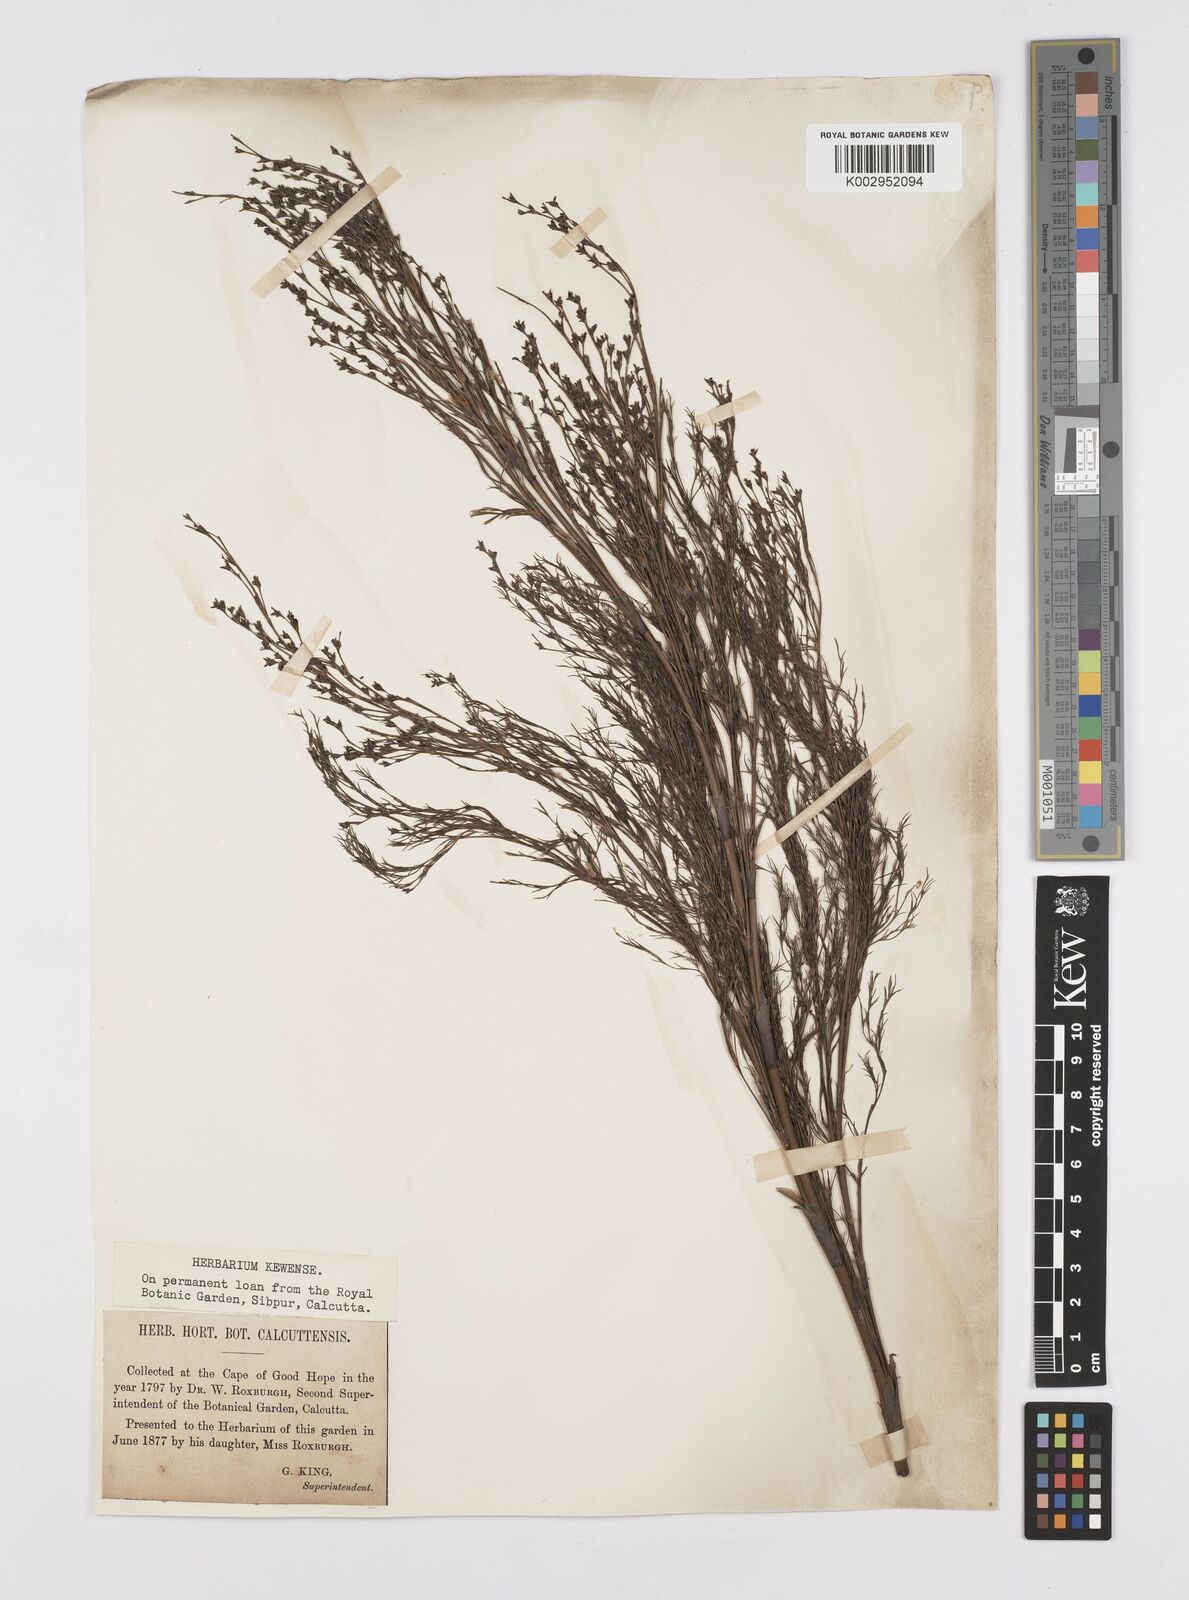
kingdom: Plantae
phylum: Tracheophyta
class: Liliopsida
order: Poales
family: Restionaceae
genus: Restio
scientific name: Restio paniculatus
